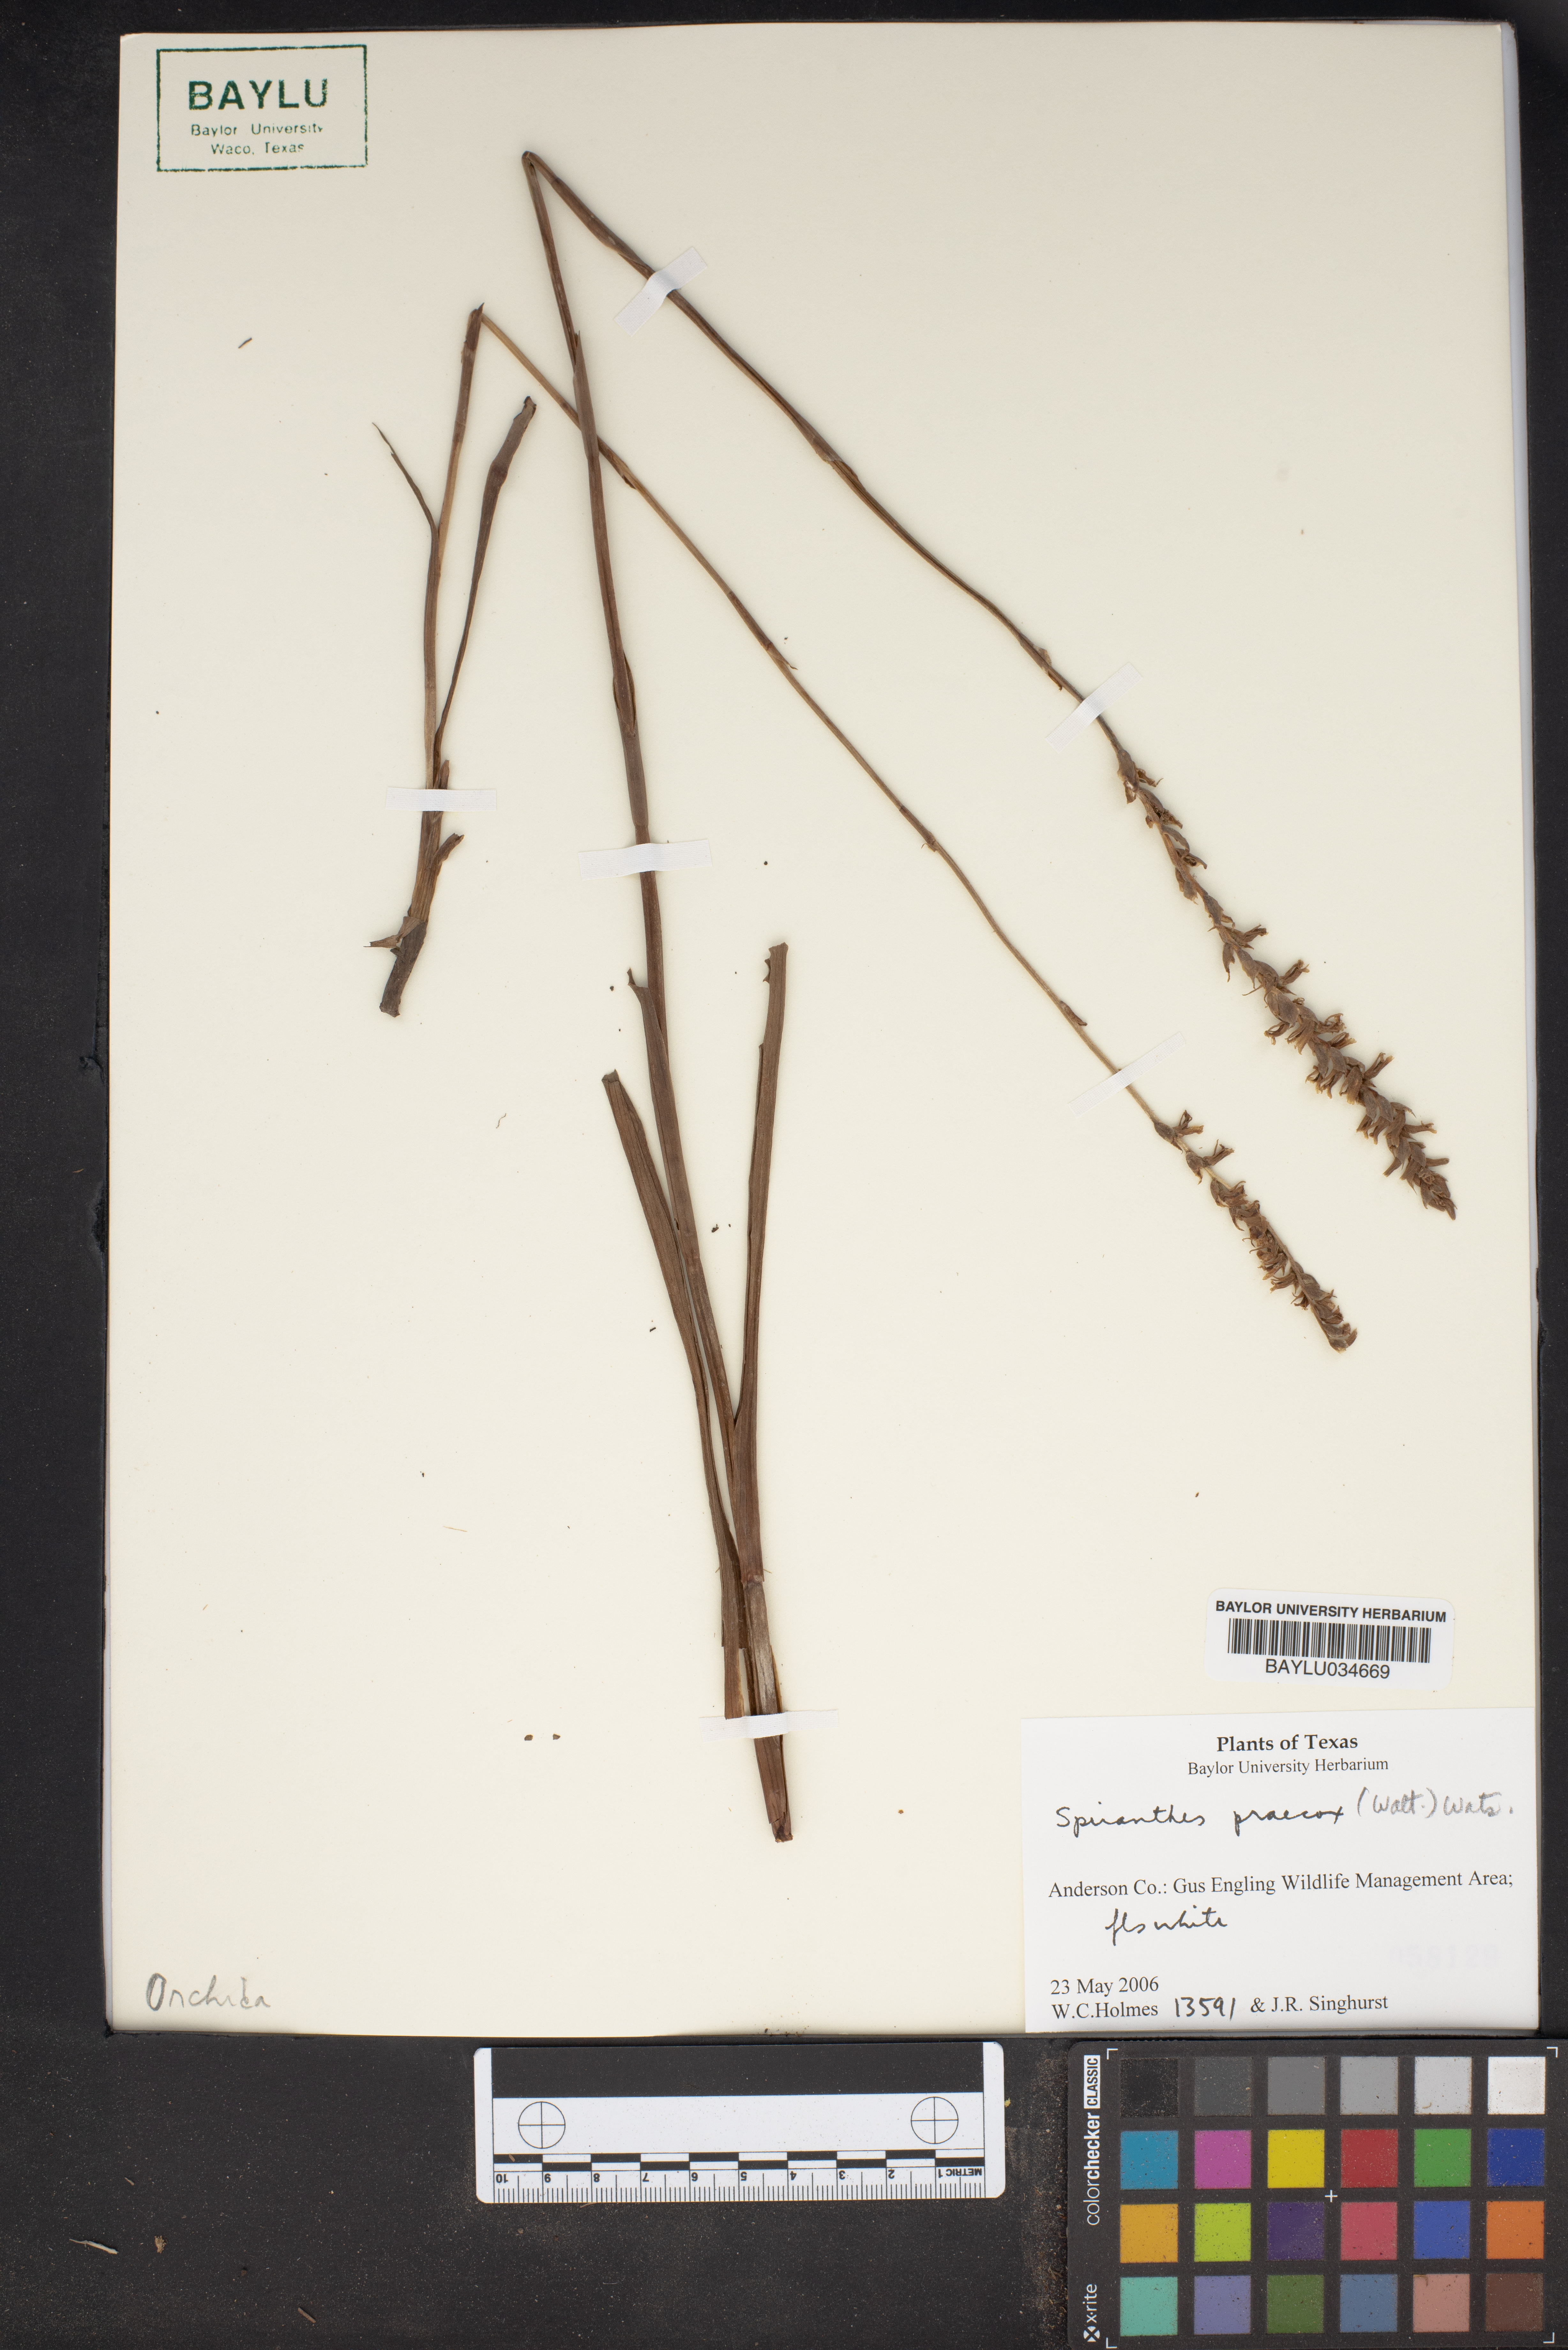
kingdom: Plantae
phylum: Tracheophyta
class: Liliopsida
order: Asparagales
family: Orchidaceae
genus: Spiranthes
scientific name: Spiranthes praecox
